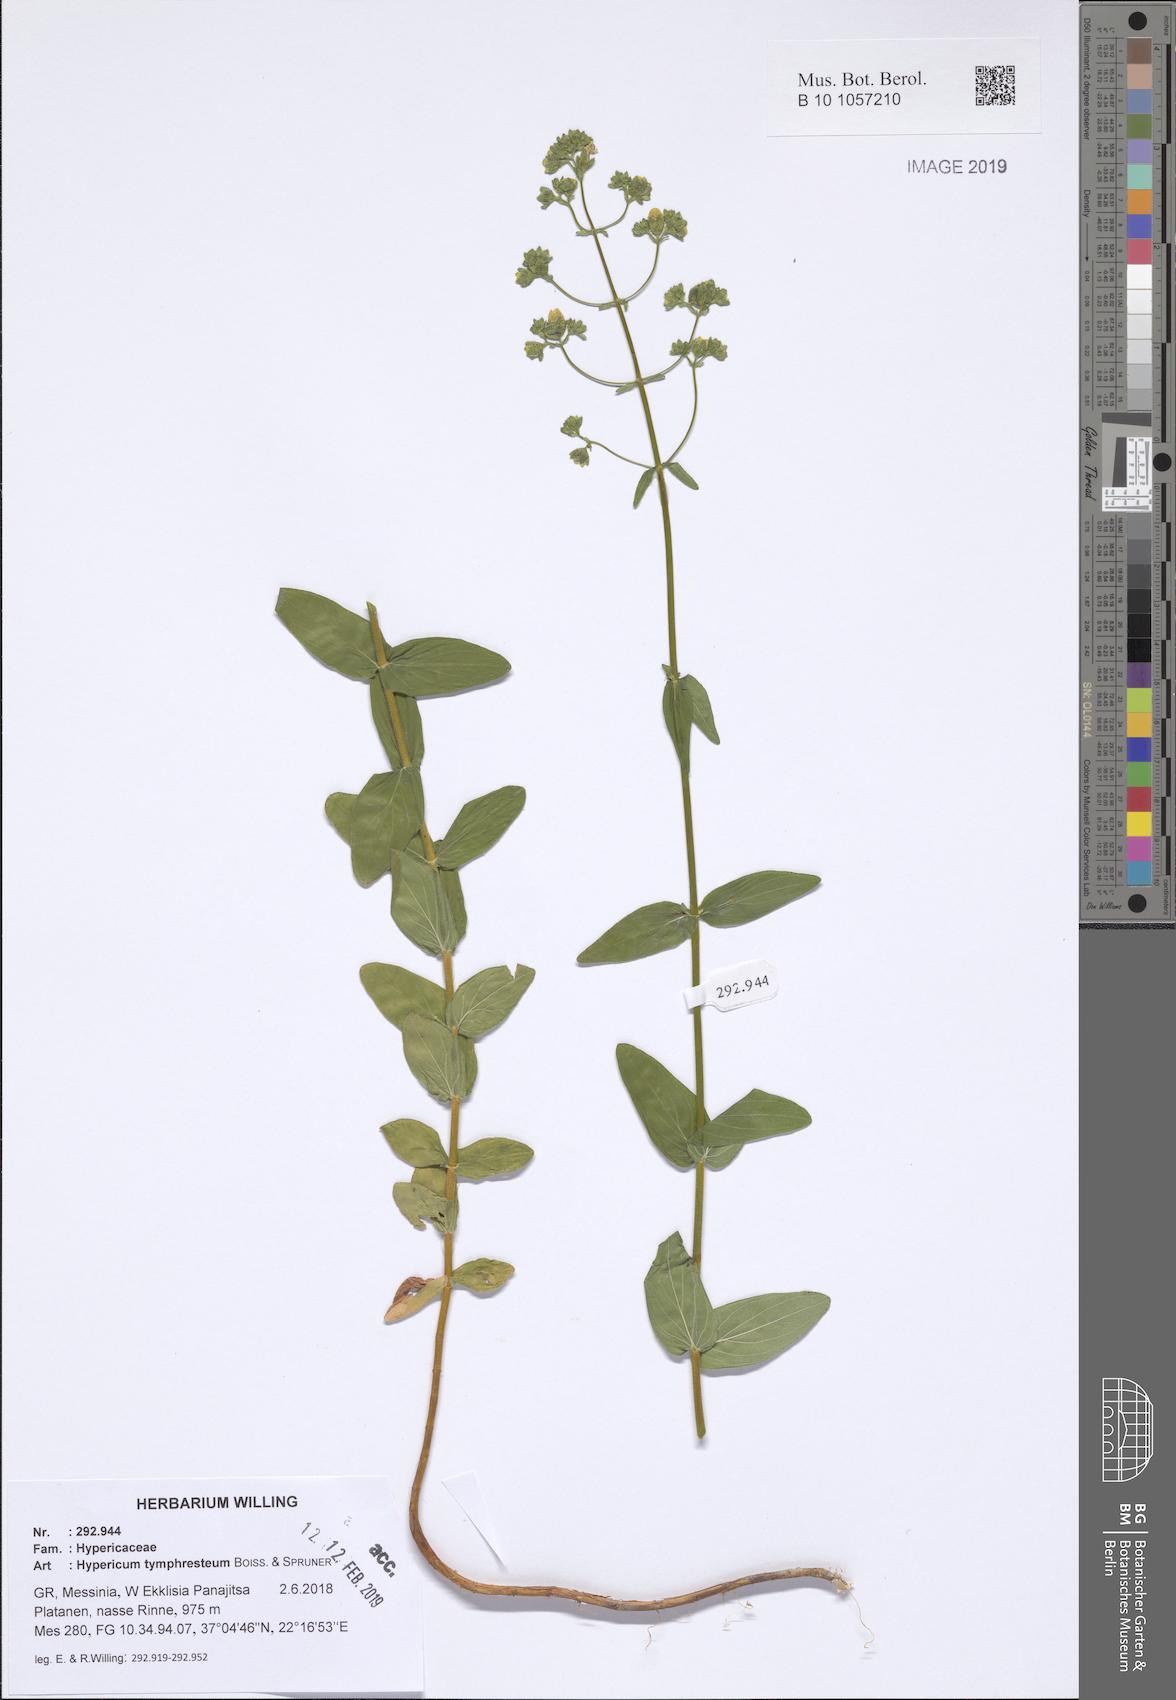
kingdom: Plantae
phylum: Tracheophyta
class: Magnoliopsida
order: Malpighiales
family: Hypericaceae
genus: Hypericum
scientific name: Hypericum atomarium
